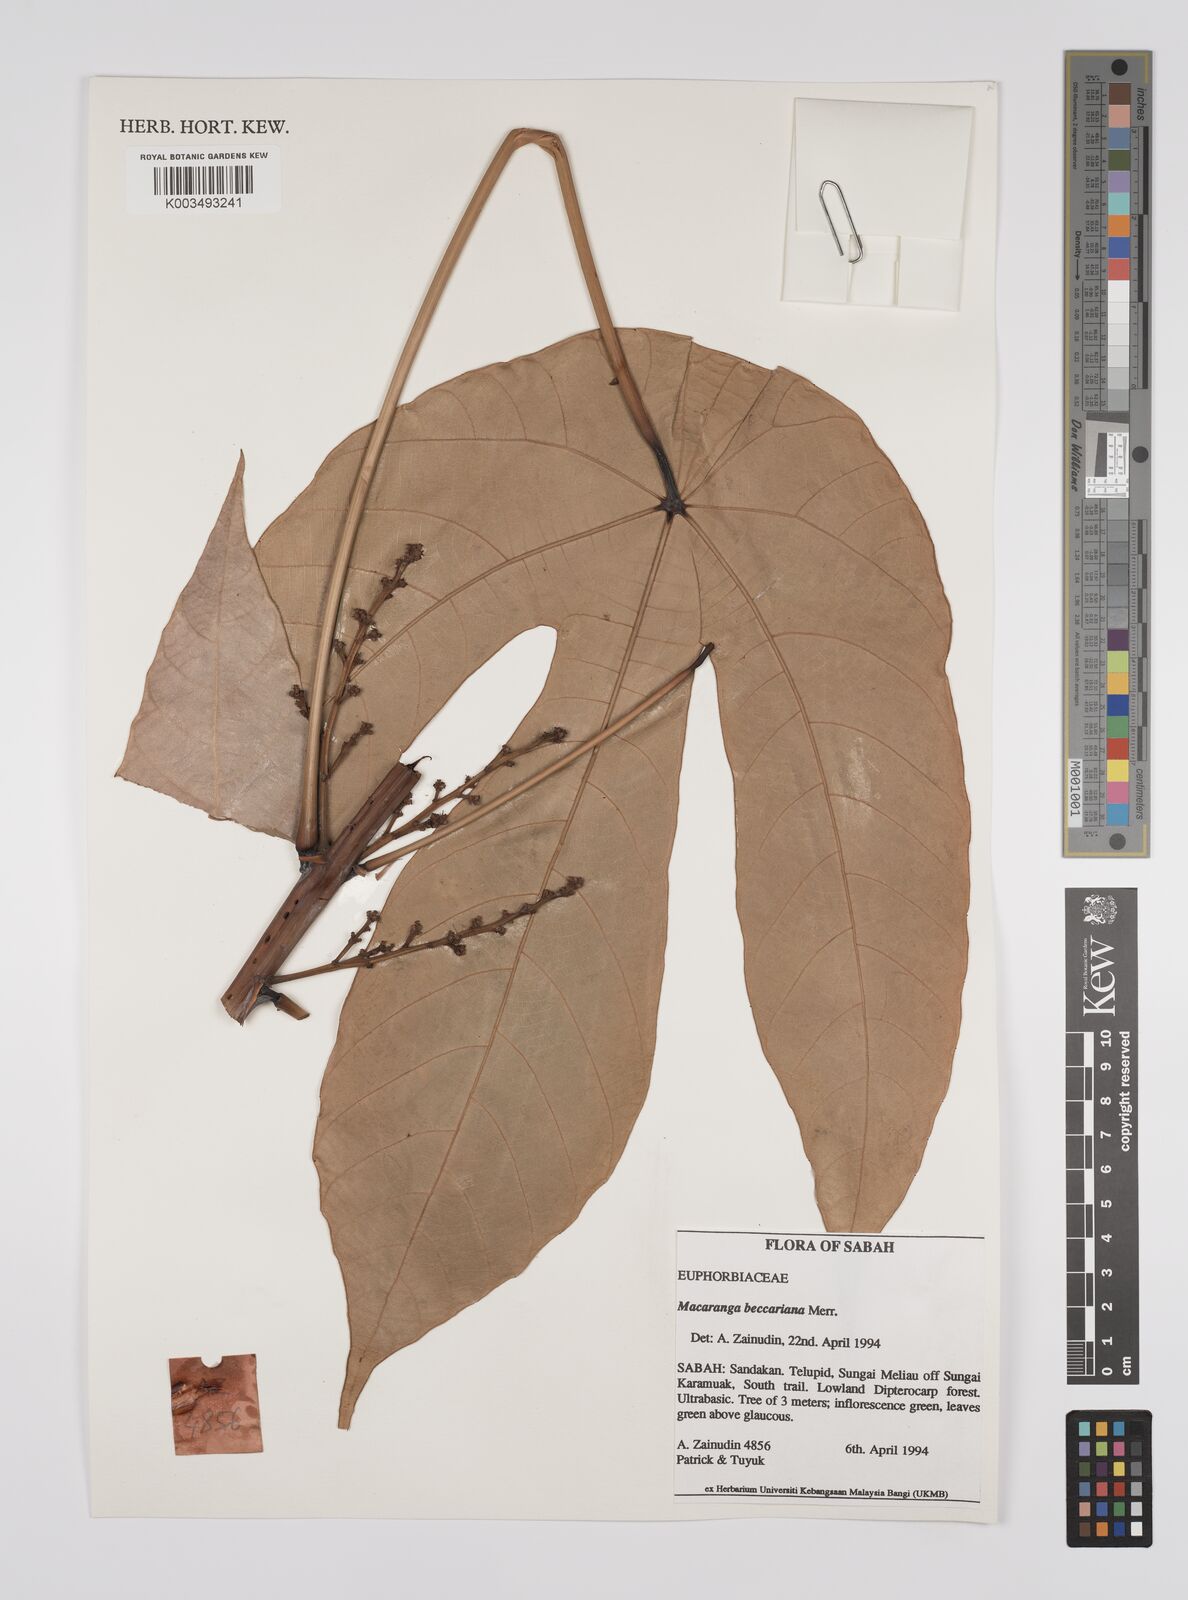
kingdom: Plantae
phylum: Tracheophyta
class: Magnoliopsida
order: Malpighiales
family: Euphorbiaceae
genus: Macaranga
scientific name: Macaranga beccariana
